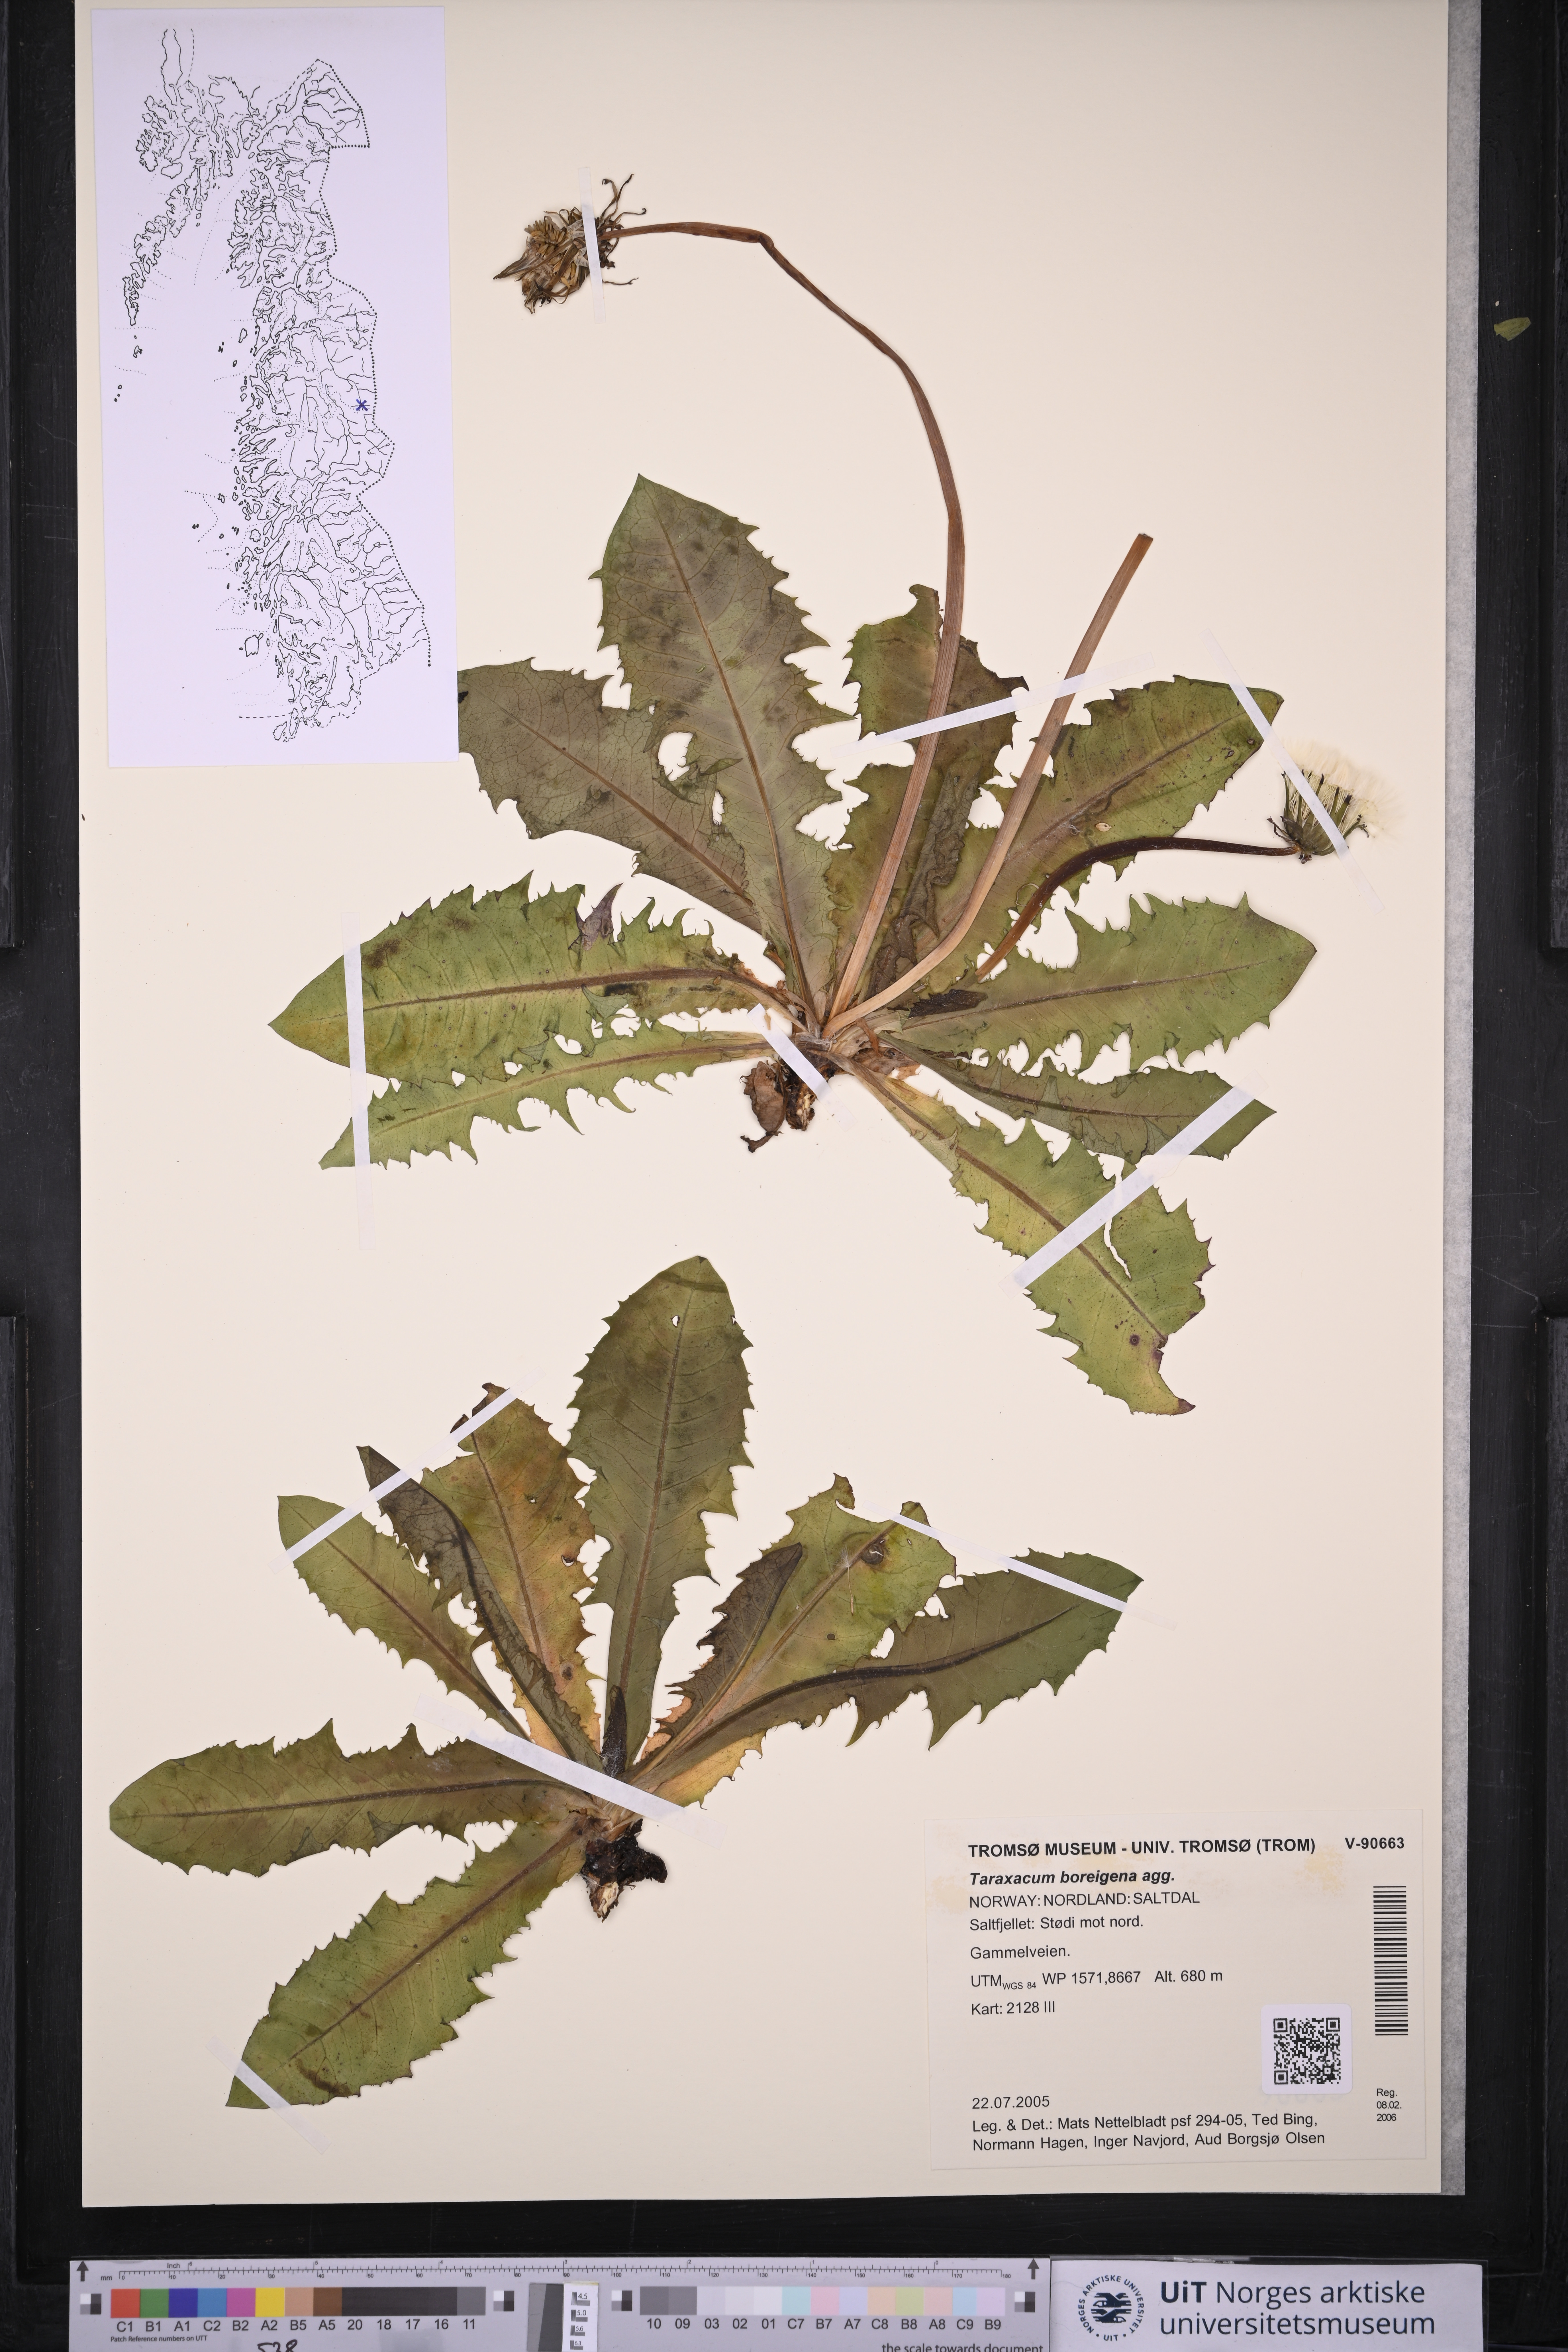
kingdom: Plantae
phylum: Tracheophyta
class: Magnoliopsida
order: Asterales
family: Asteraceae
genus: Taraxacum
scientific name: Taraxacum
